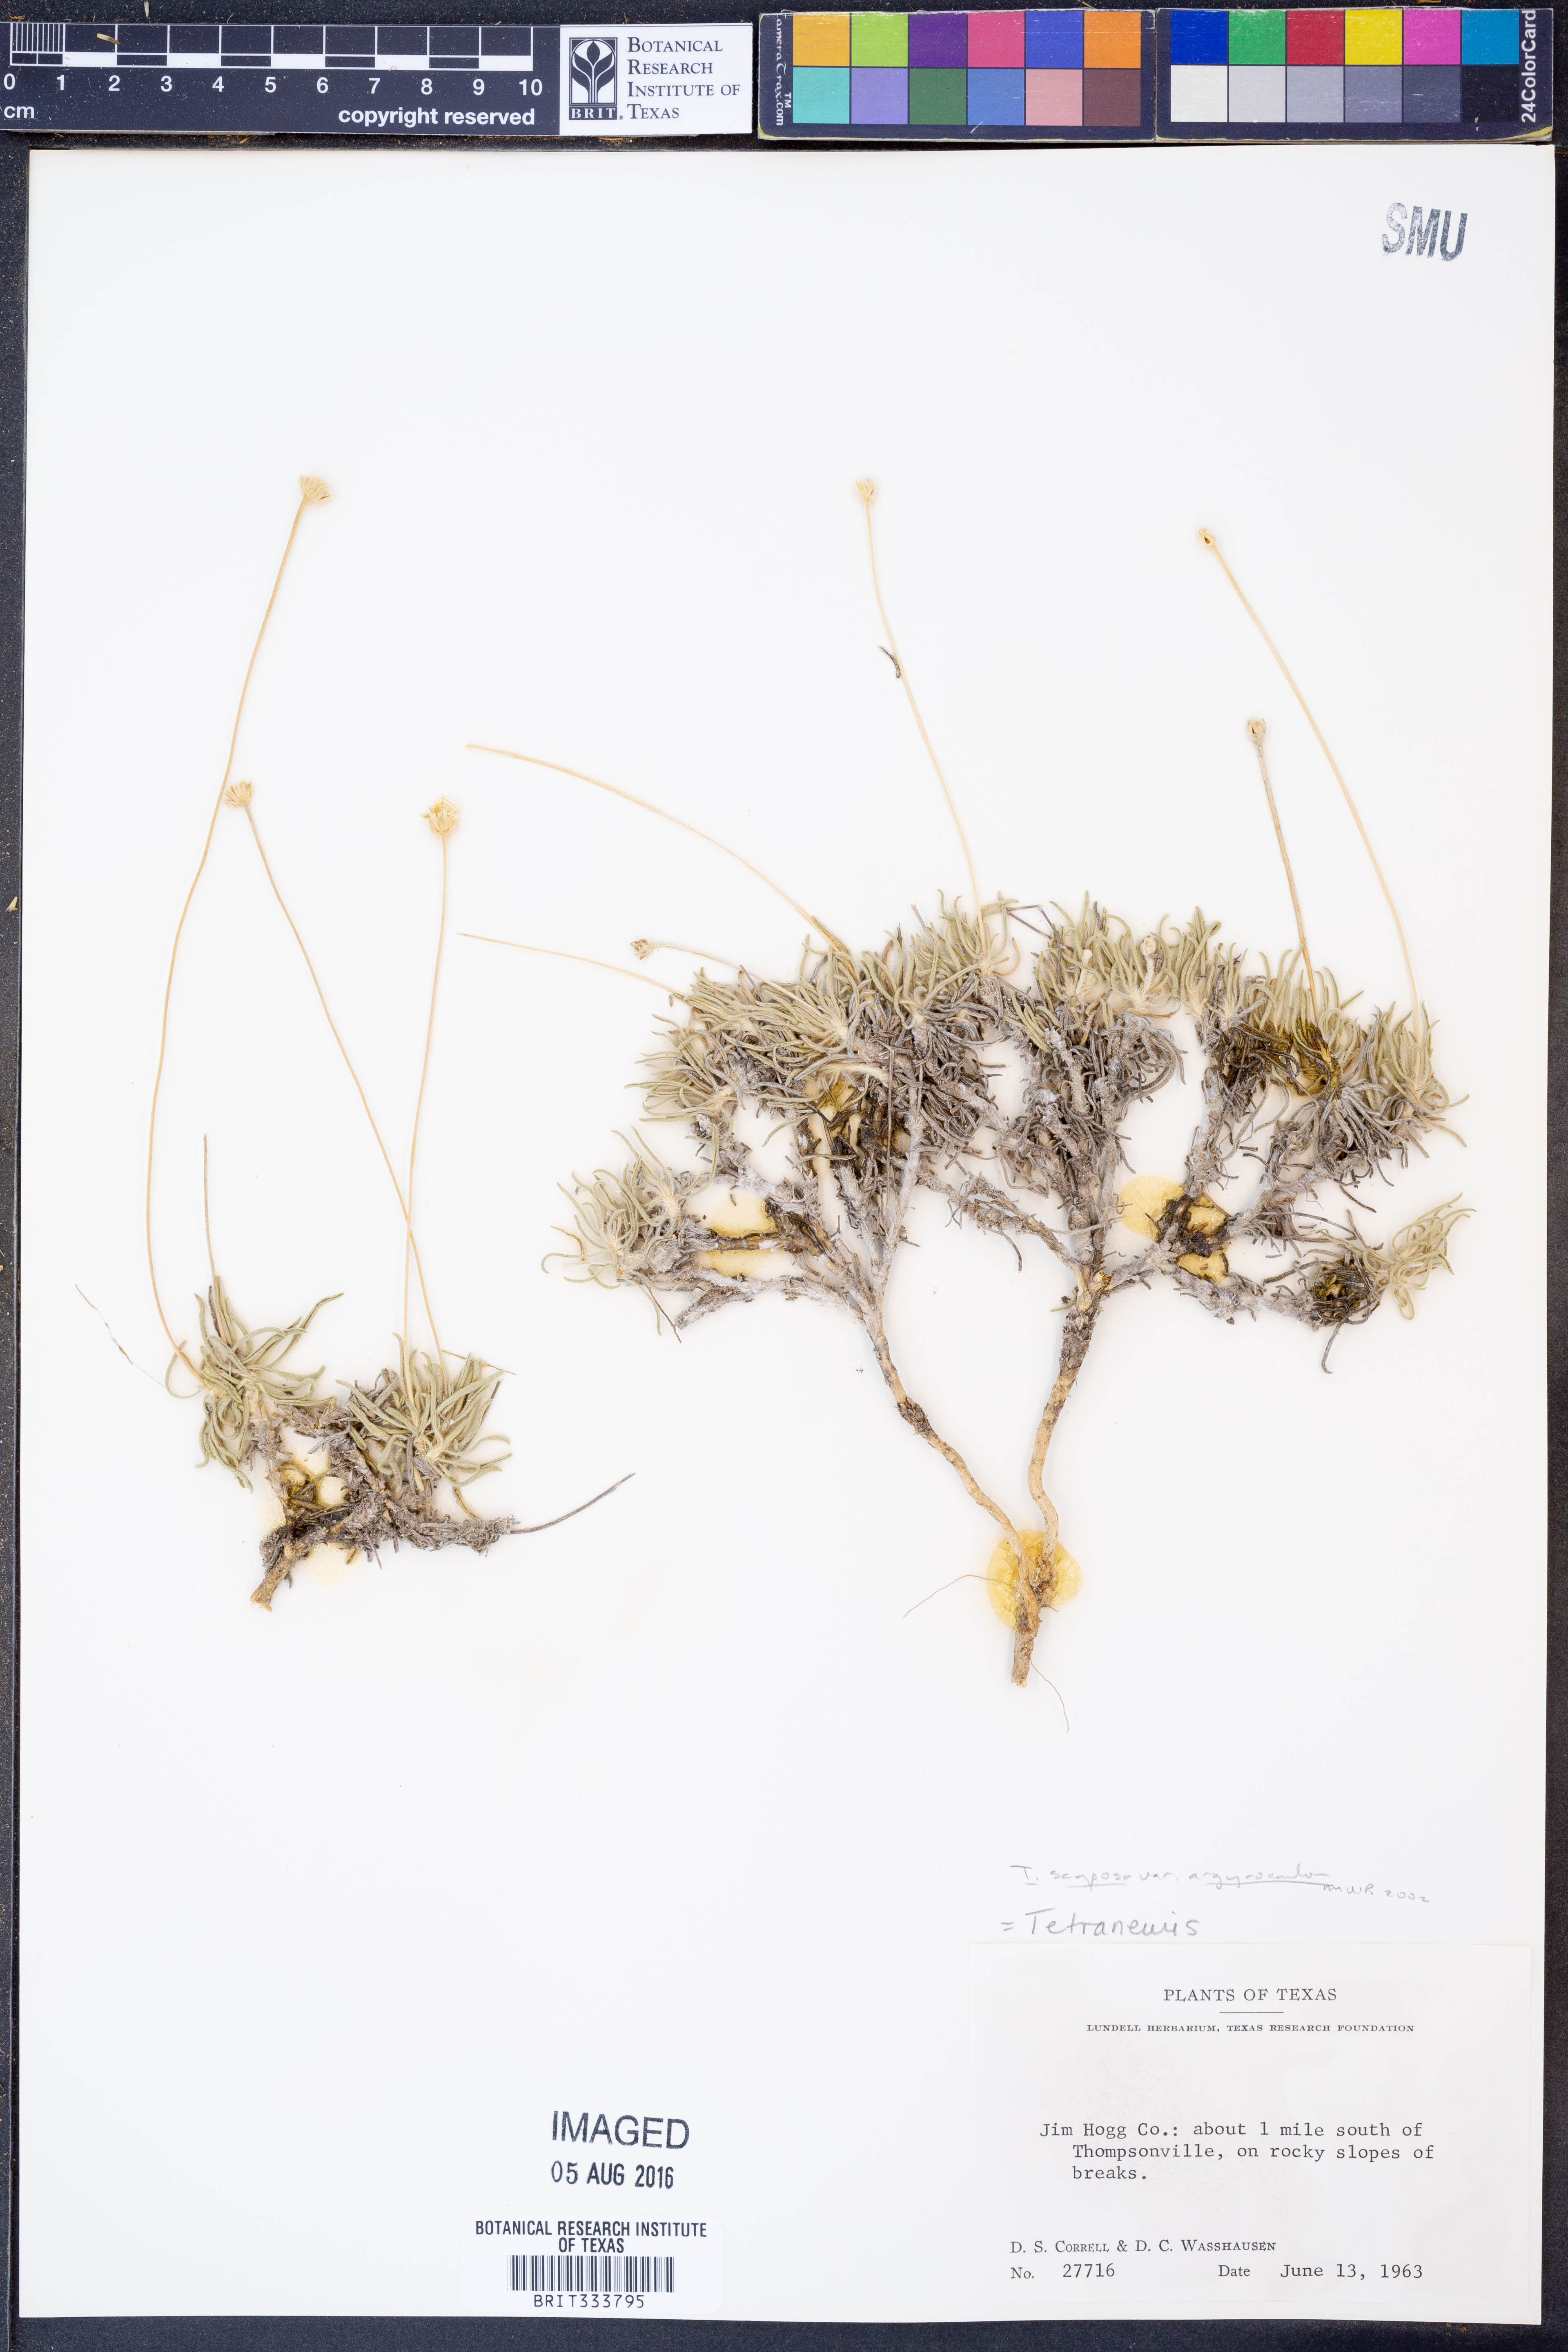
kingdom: Plantae
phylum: Tracheophyta
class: Magnoliopsida
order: Asterales
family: Asteraceae
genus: Tetraneuris
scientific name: Tetraneuris scaposa
